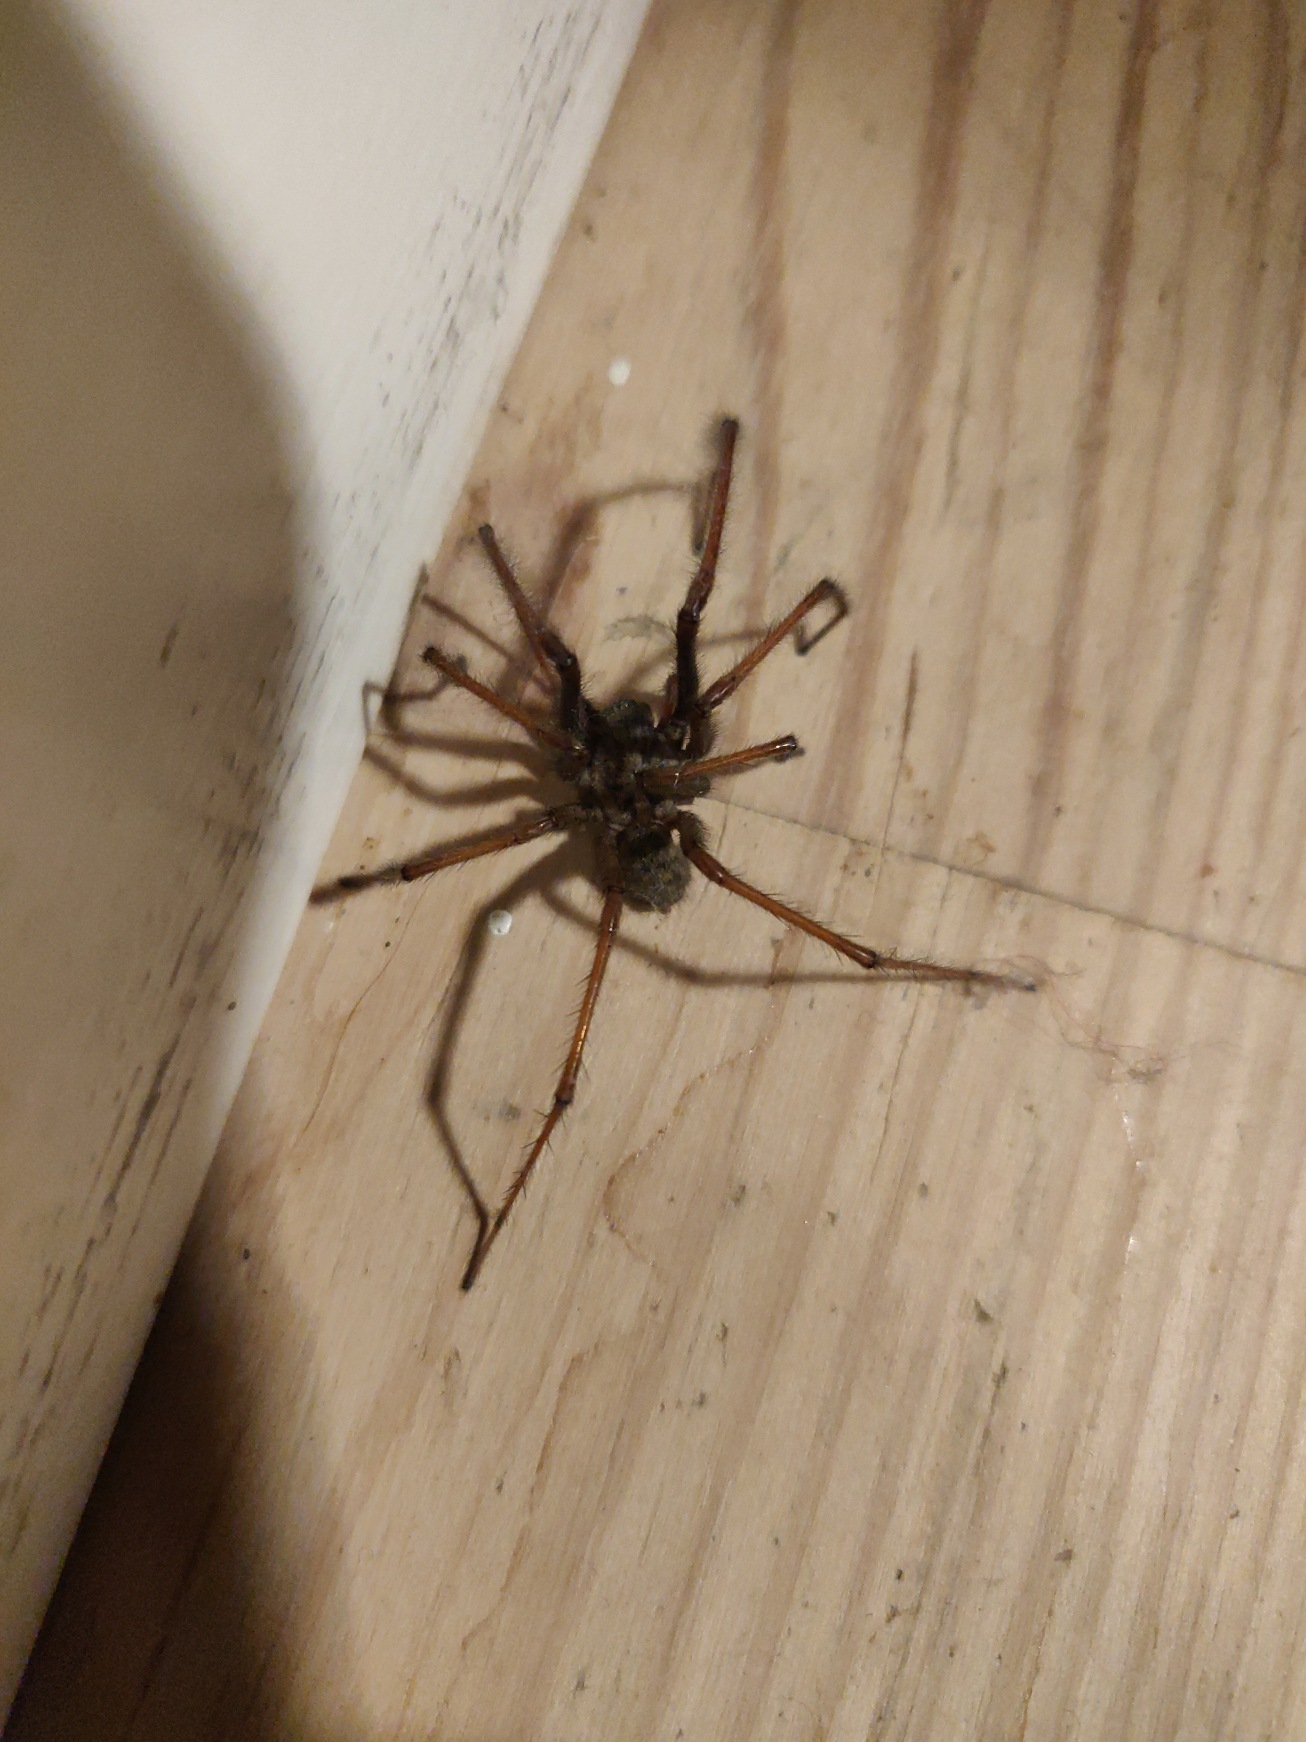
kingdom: Animalia
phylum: Arthropoda
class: Arachnida
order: Araneae
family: Agelenidae
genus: Eratigena
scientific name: Eratigena atrica
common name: Stor husedderkop
